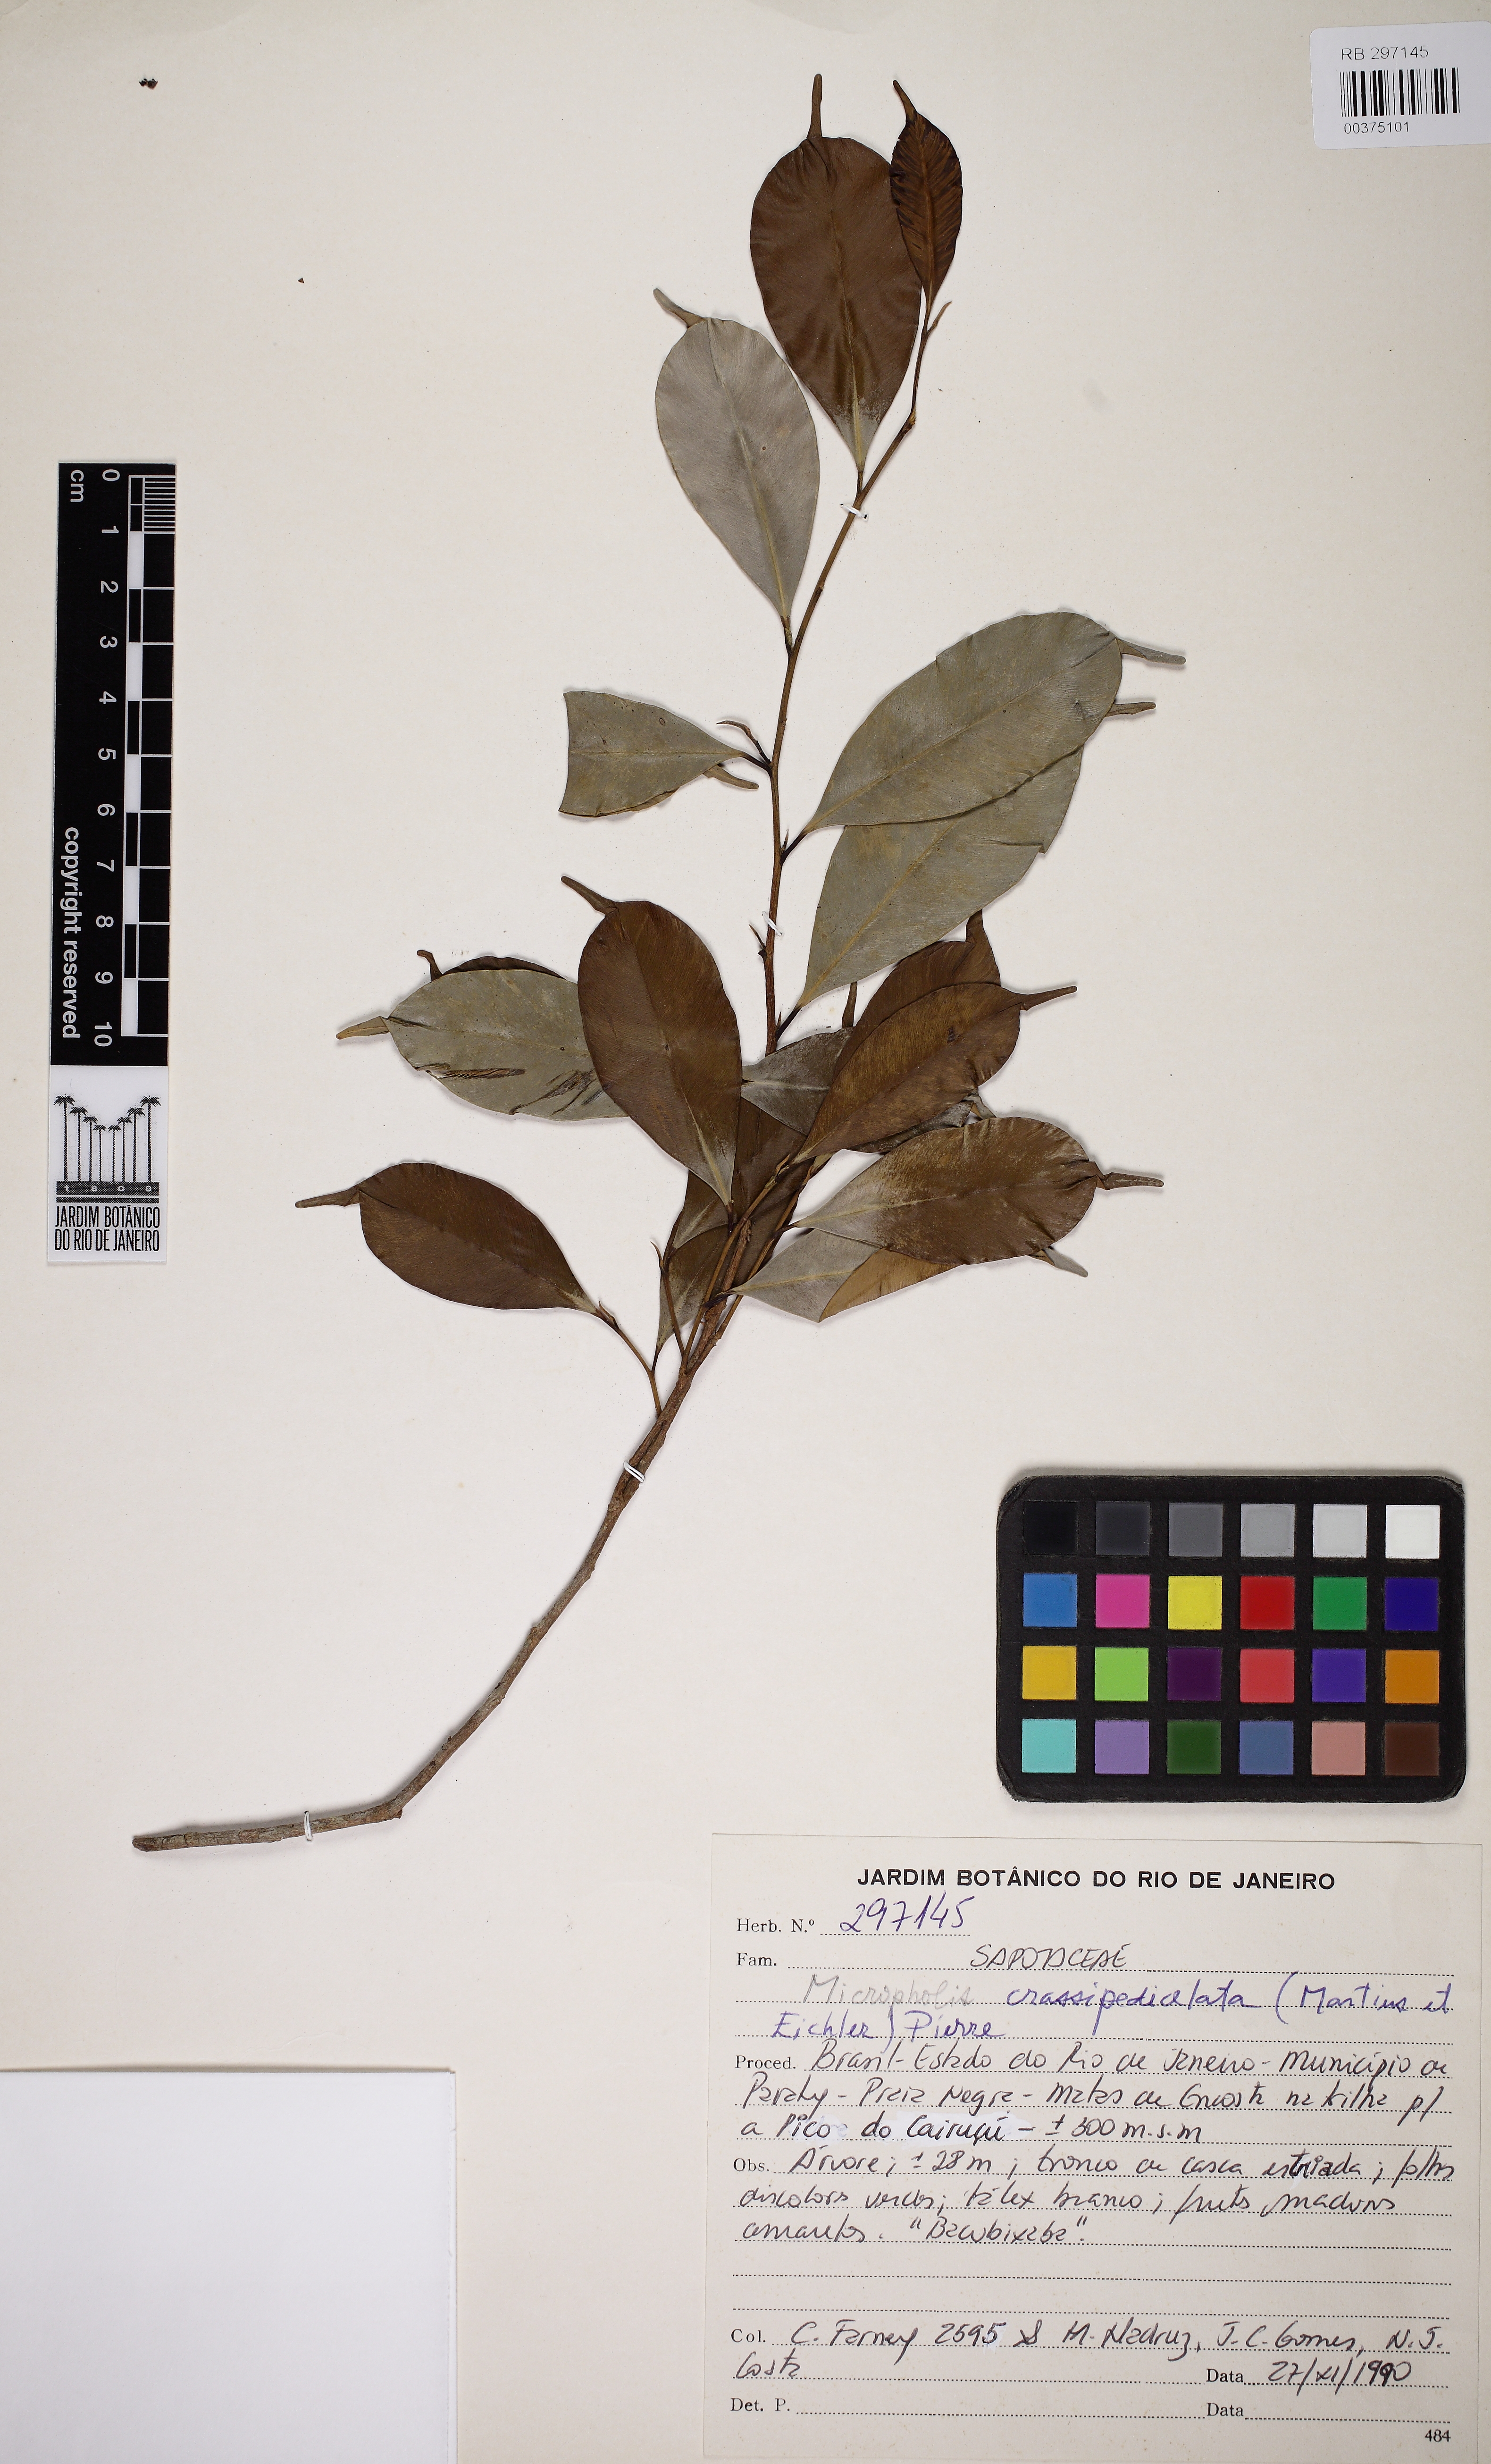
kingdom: Plantae
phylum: Tracheophyta
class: Magnoliopsida
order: Ericales
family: Sapotaceae
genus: Micropholis
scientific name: Micropholis crassipedicellata
